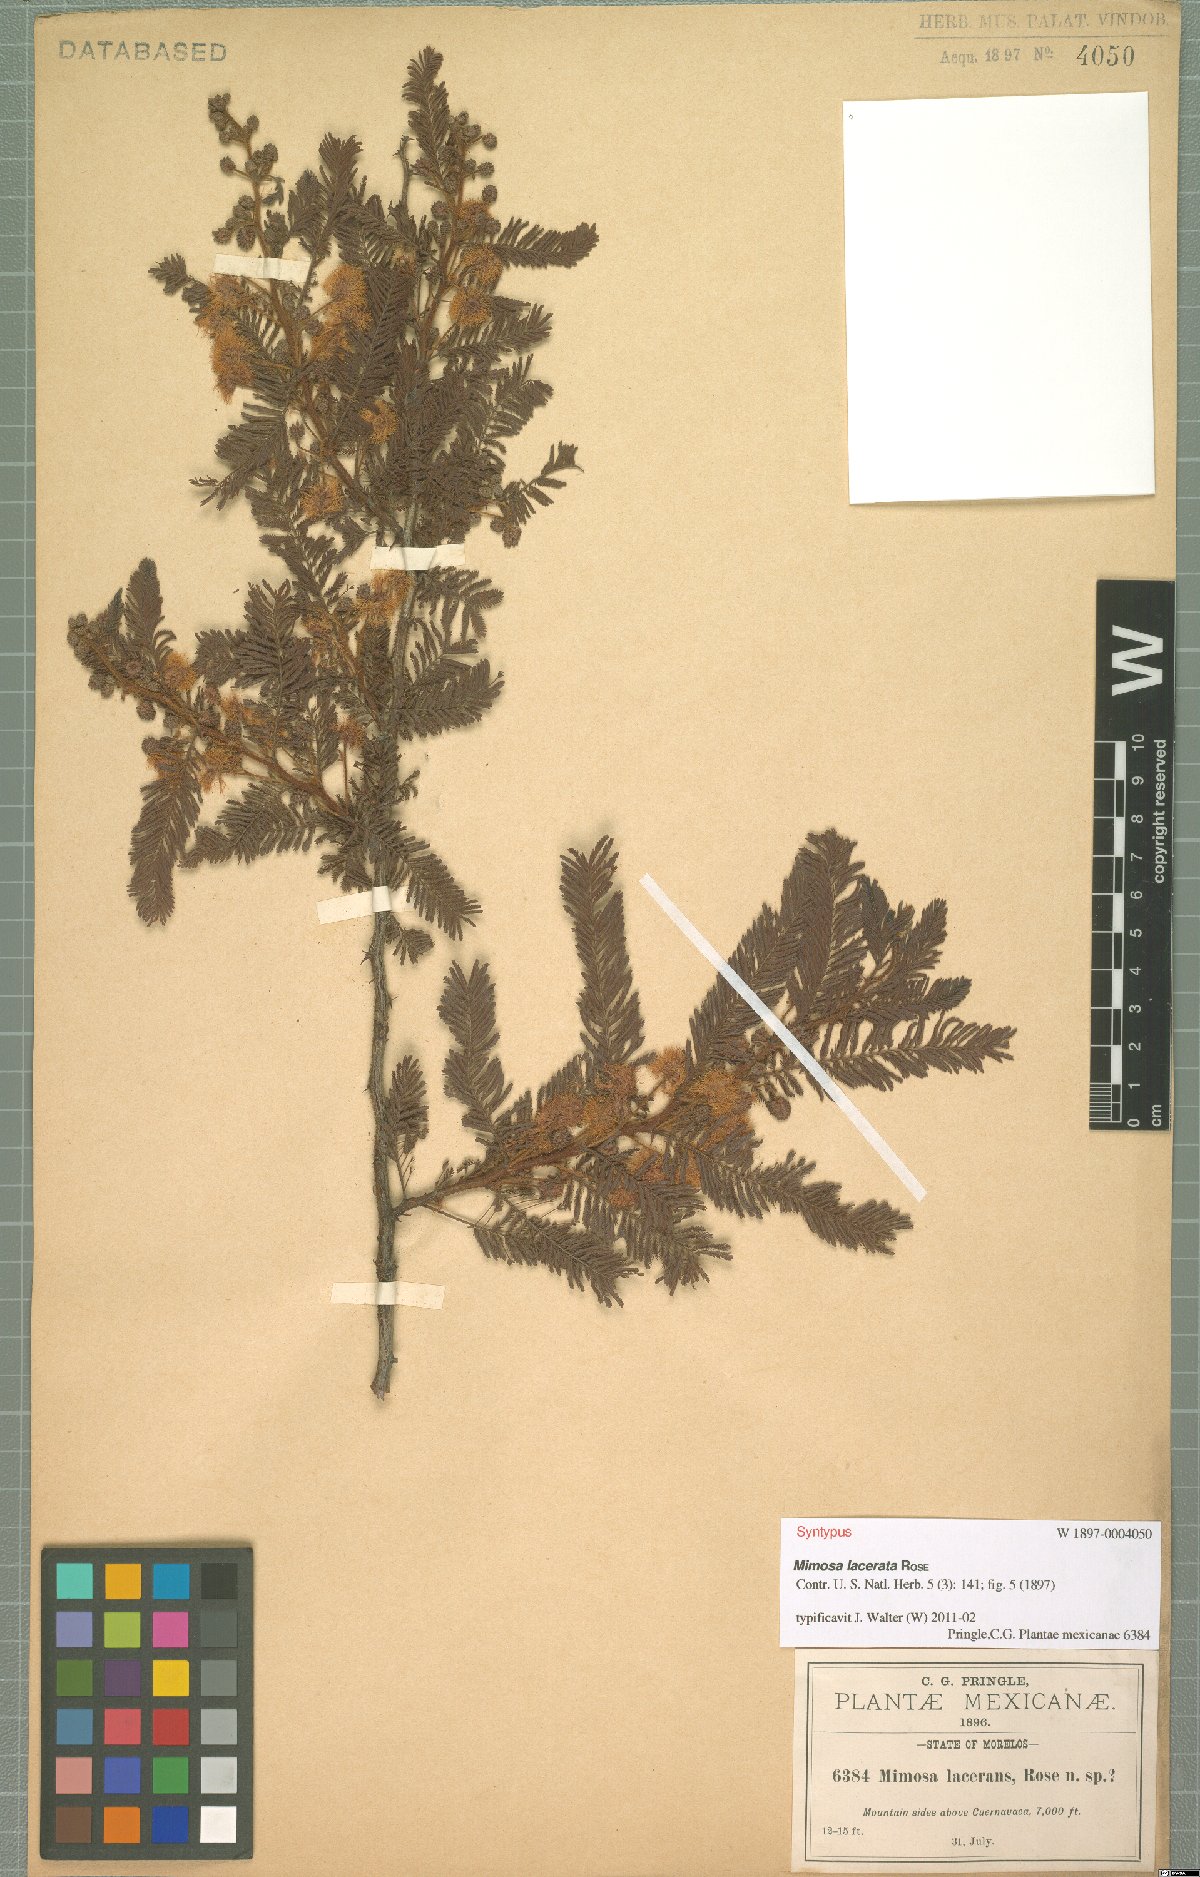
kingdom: Plantae
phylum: Tracheophyta
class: Magnoliopsida
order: Fabales
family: Fabaceae
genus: Mimosa
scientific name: Mimosa lacerata
